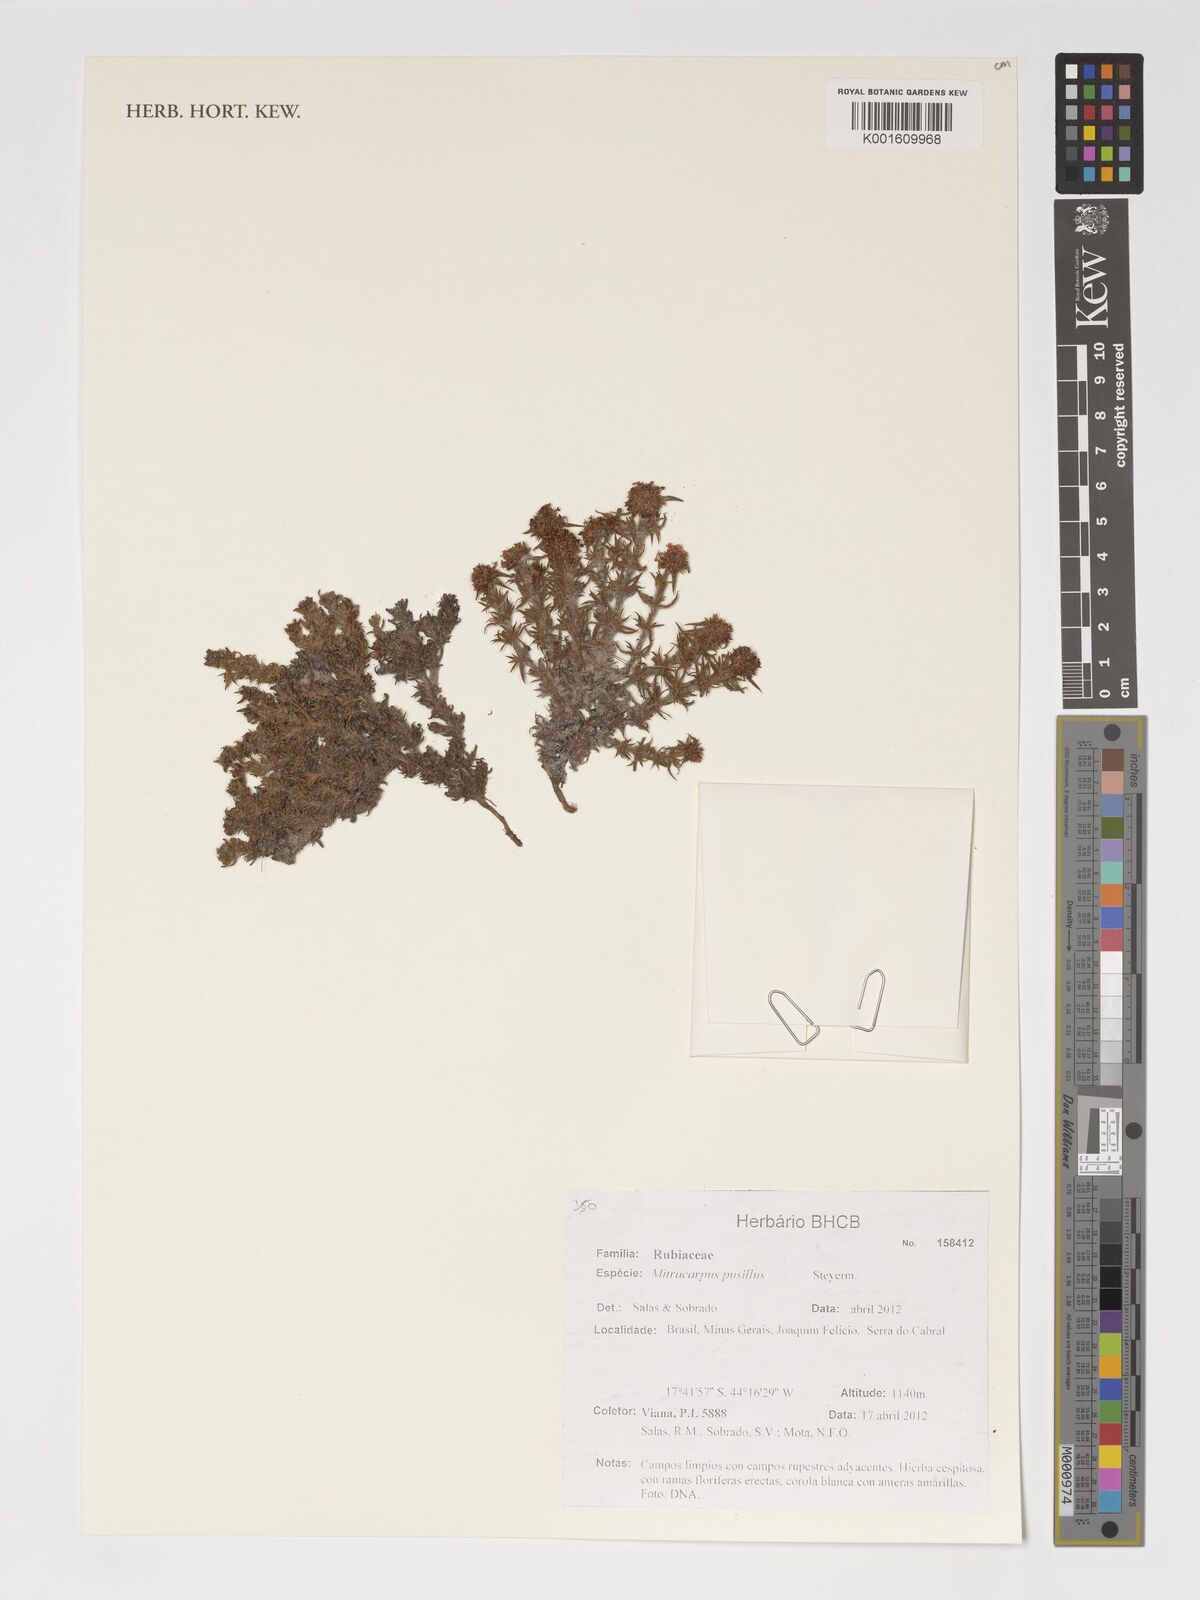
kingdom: Plantae
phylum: Tracheophyta
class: Magnoliopsida
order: Gentianales
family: Rubiaceae
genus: Mitracarpus
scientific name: Mitracarpus pusillus
